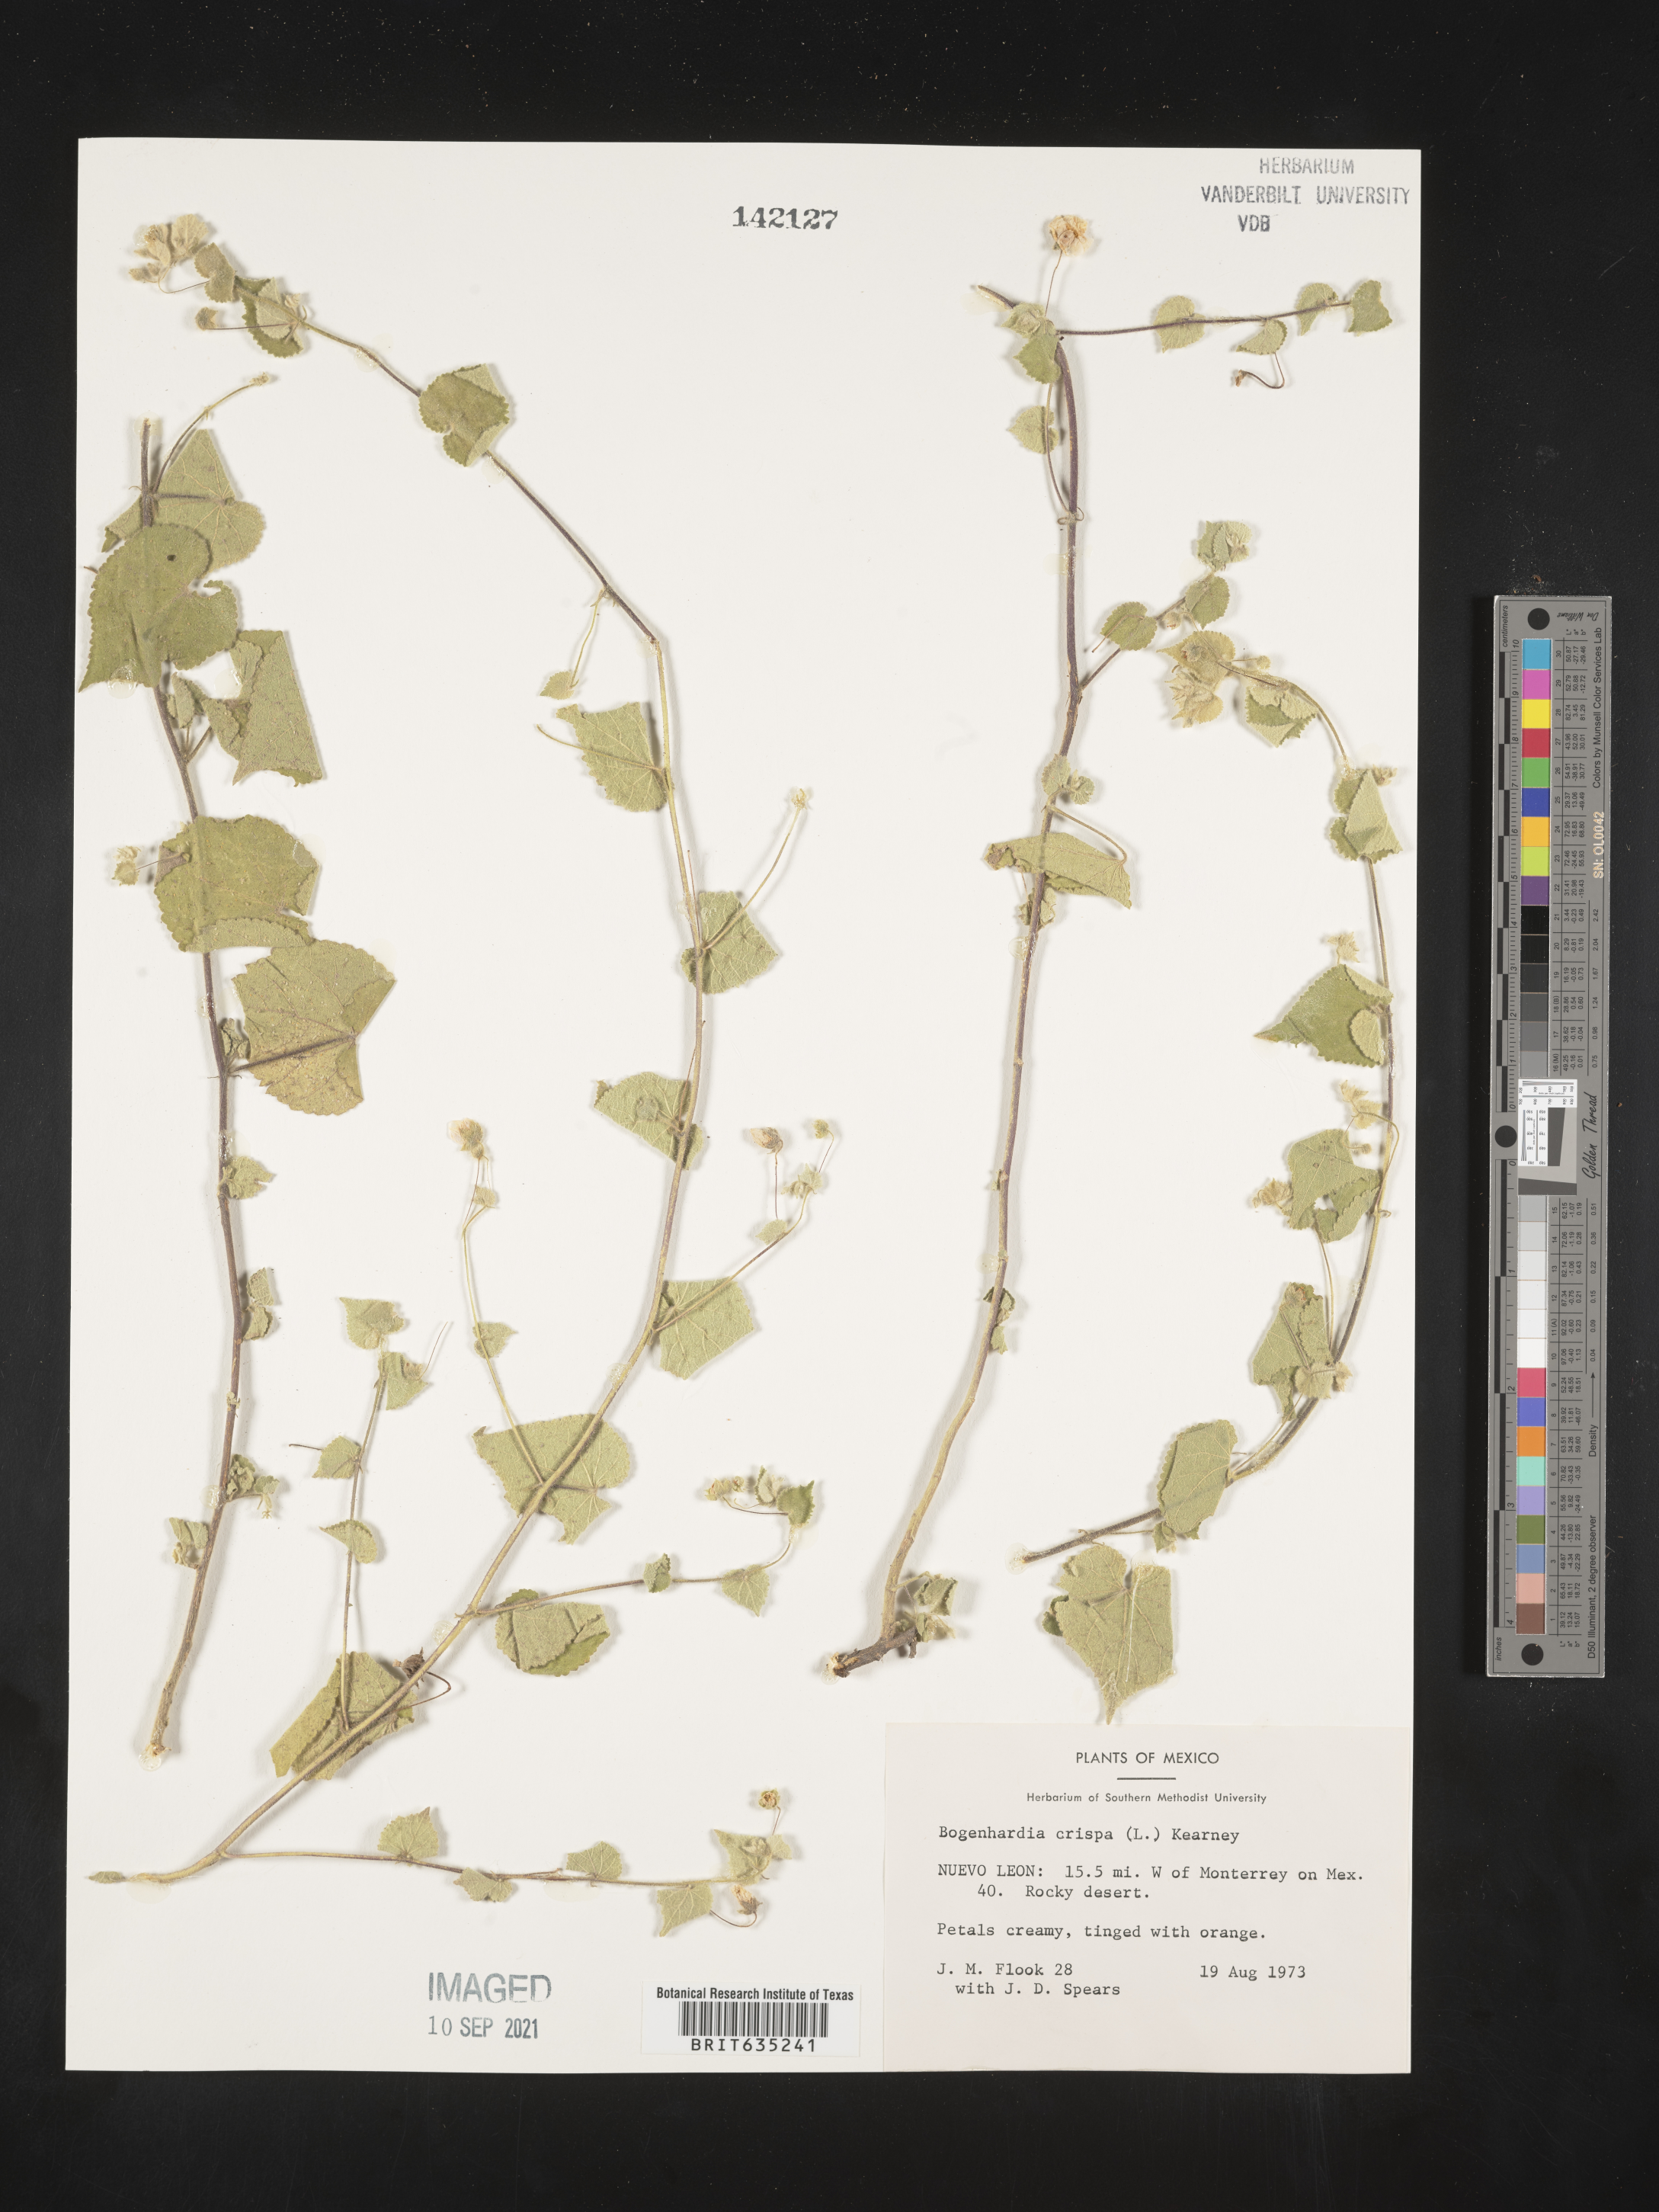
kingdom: Plantae
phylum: Tracheophyta
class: Magnoliopsida
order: Malvales
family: Malvaceae
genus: Herissantia
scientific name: Herissantia
